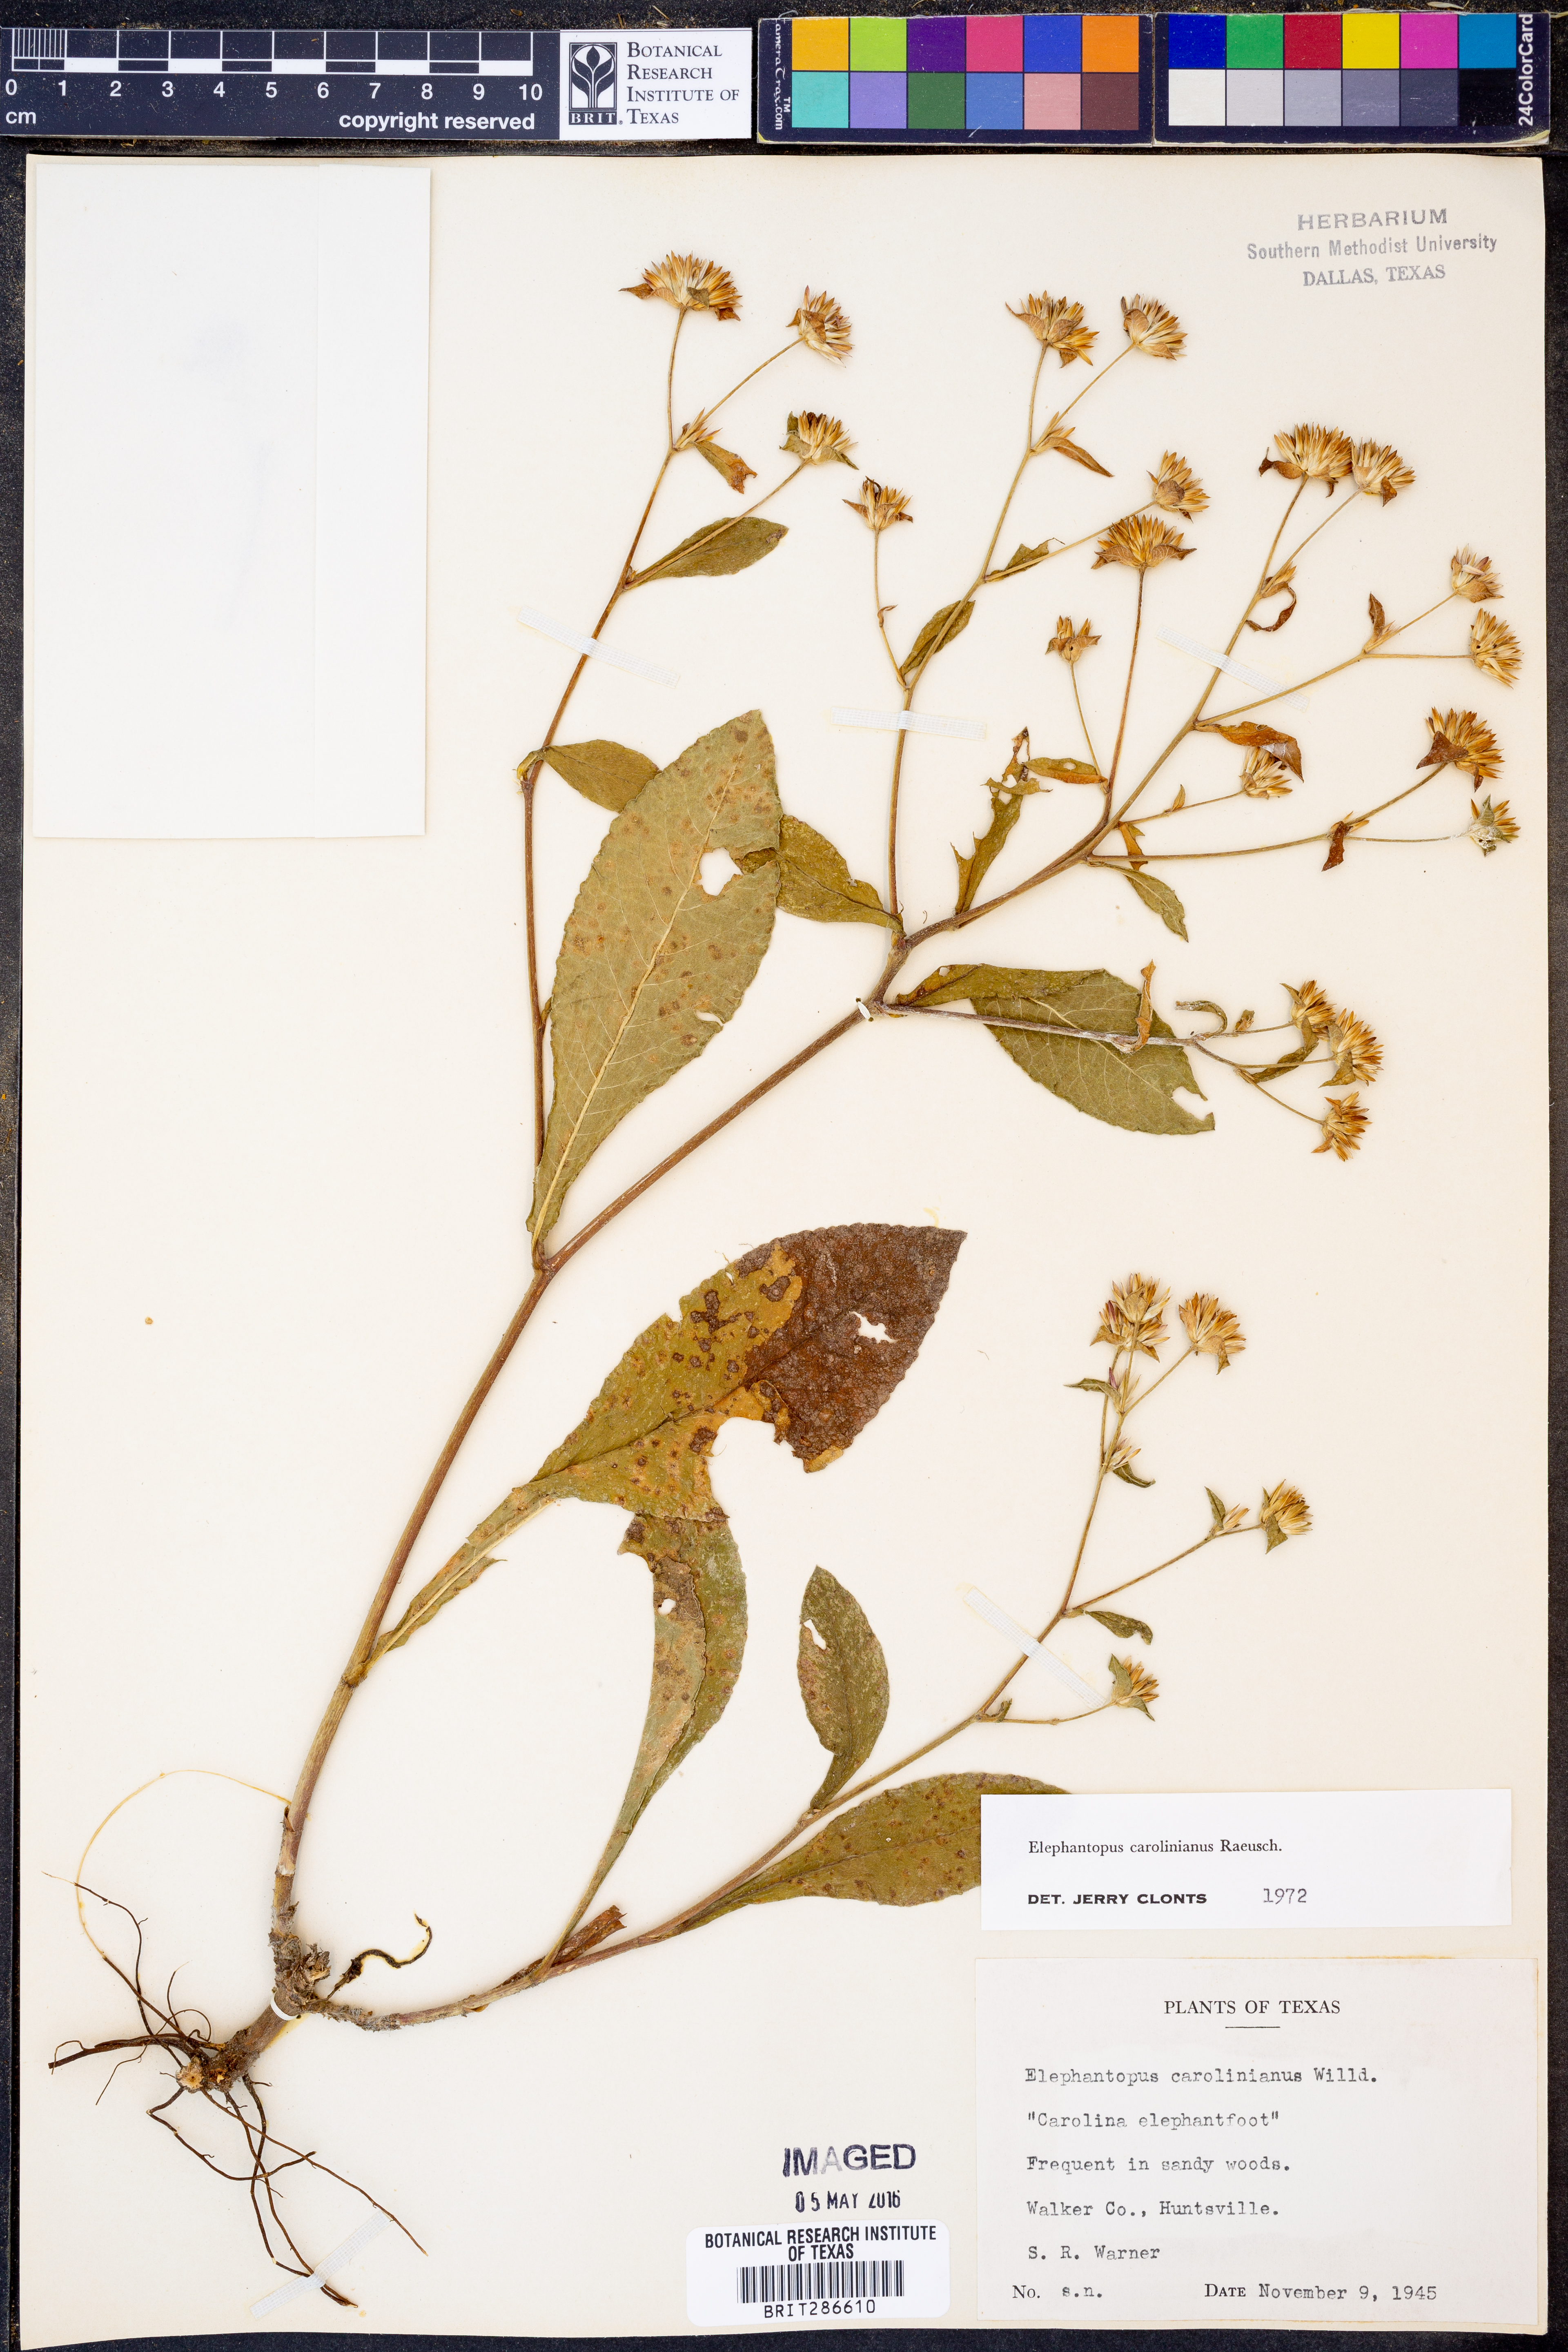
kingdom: Plantae
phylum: Tracheophyta
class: Magnoliopsida
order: Asterales
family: Asteraceae
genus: Elephantopus
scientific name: Elephantopus carolinianus
